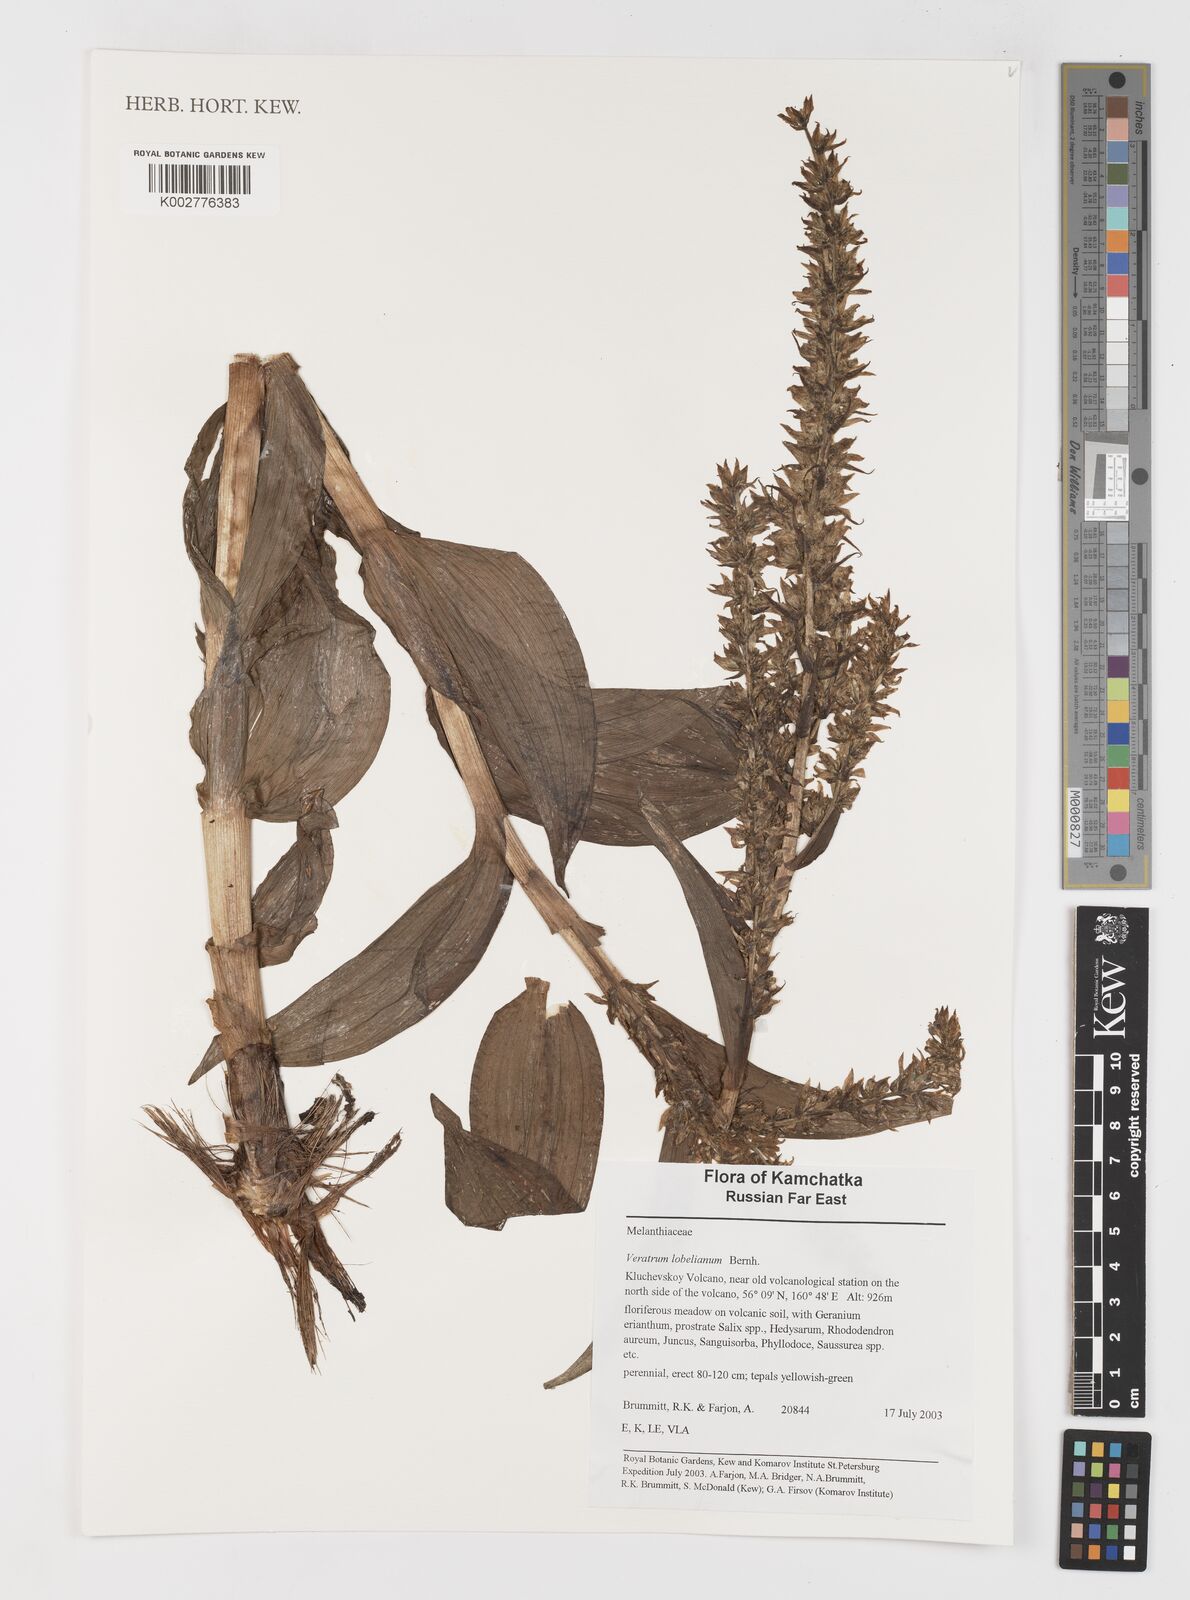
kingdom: Plantae
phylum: Tracheophyta
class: Liliopsida
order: Liliales
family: Melanthiaceae
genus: Veratrum
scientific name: Veratrum lobelianum
